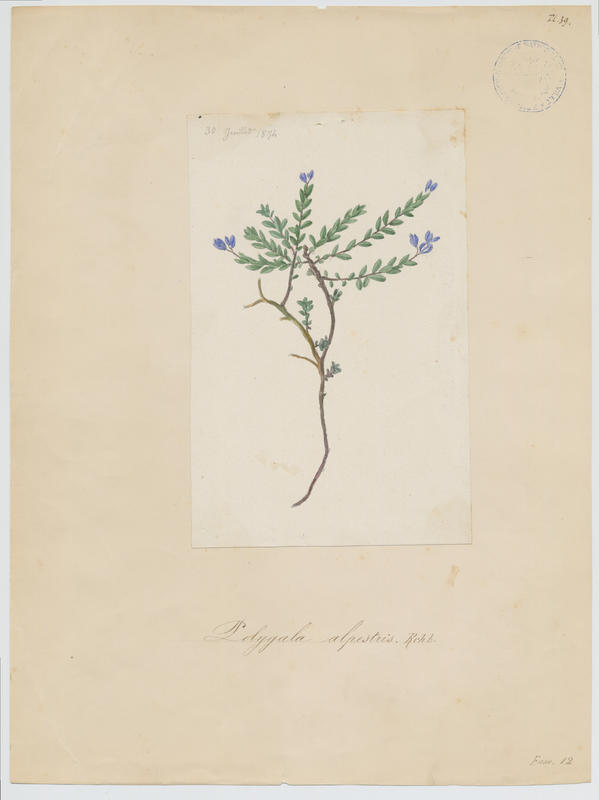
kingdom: Plantae
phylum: Tracheophyta
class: Magnoliopsida
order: Fabales
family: Polygalaceae
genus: Polygala
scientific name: Polygala alpestris
